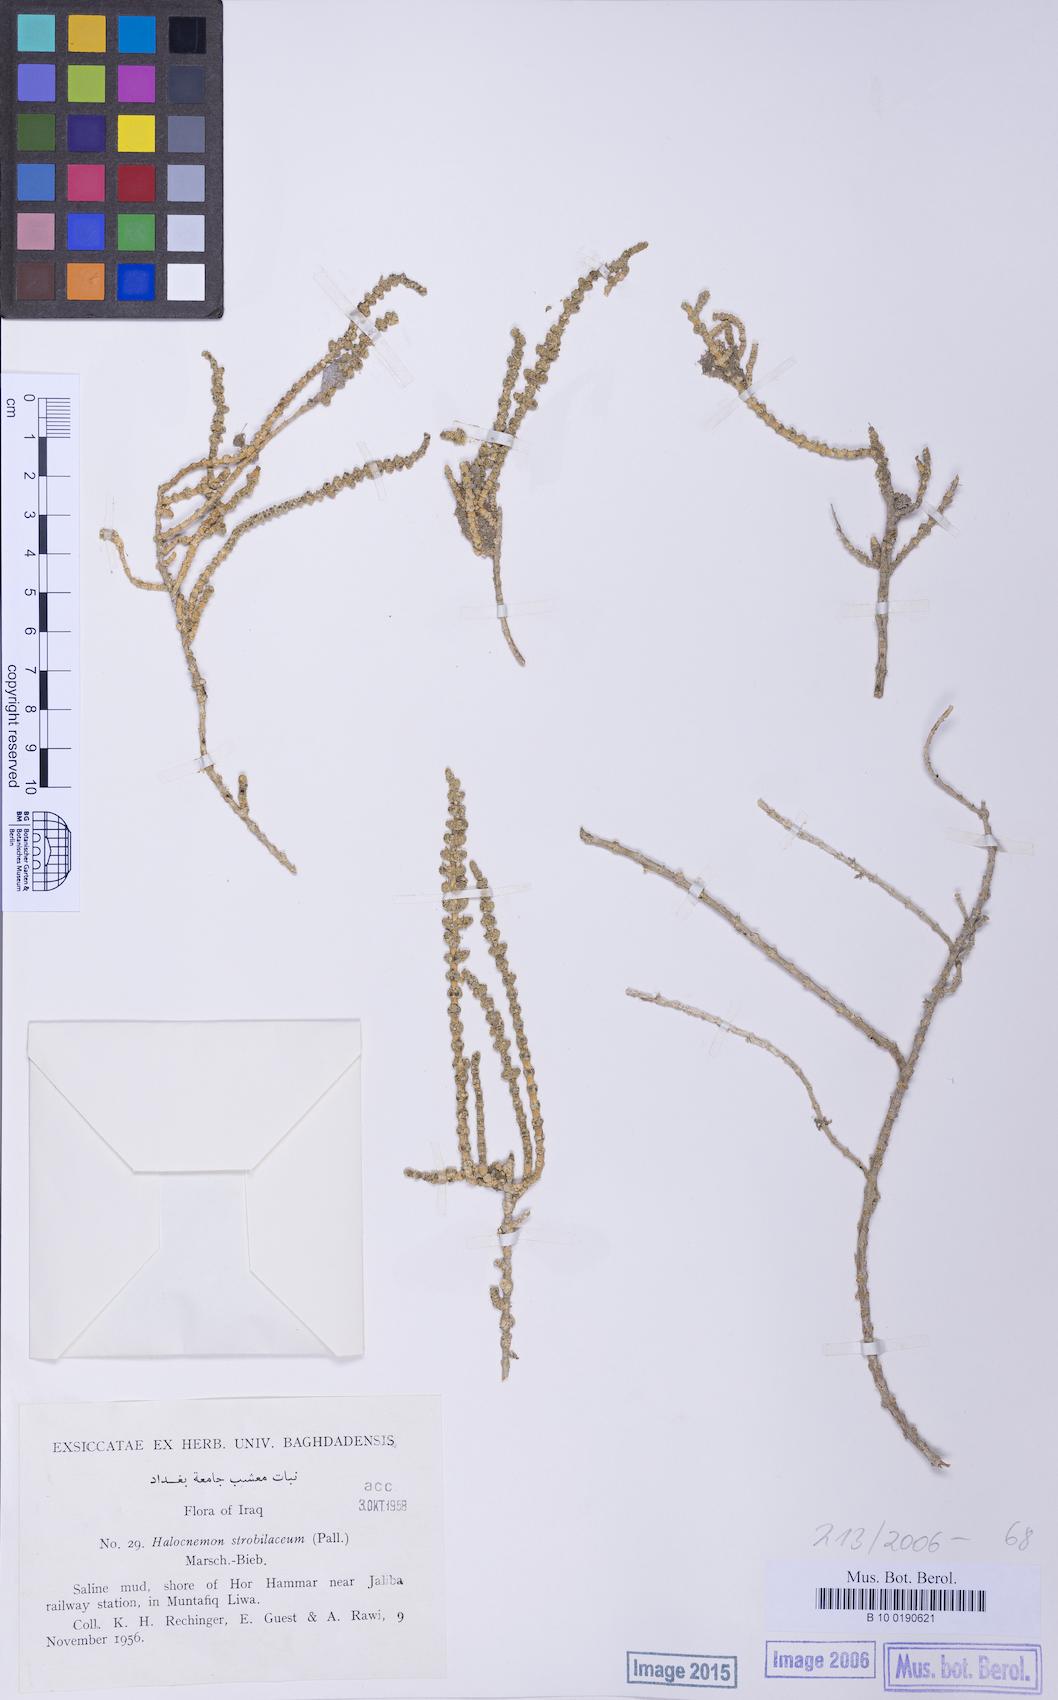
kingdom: Plantae
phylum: Tracheophyta
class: Magnoliopsida
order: Caryophyllales
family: Amaranthaceae
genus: Halocnemum
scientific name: Halocnemum strobilaceum
